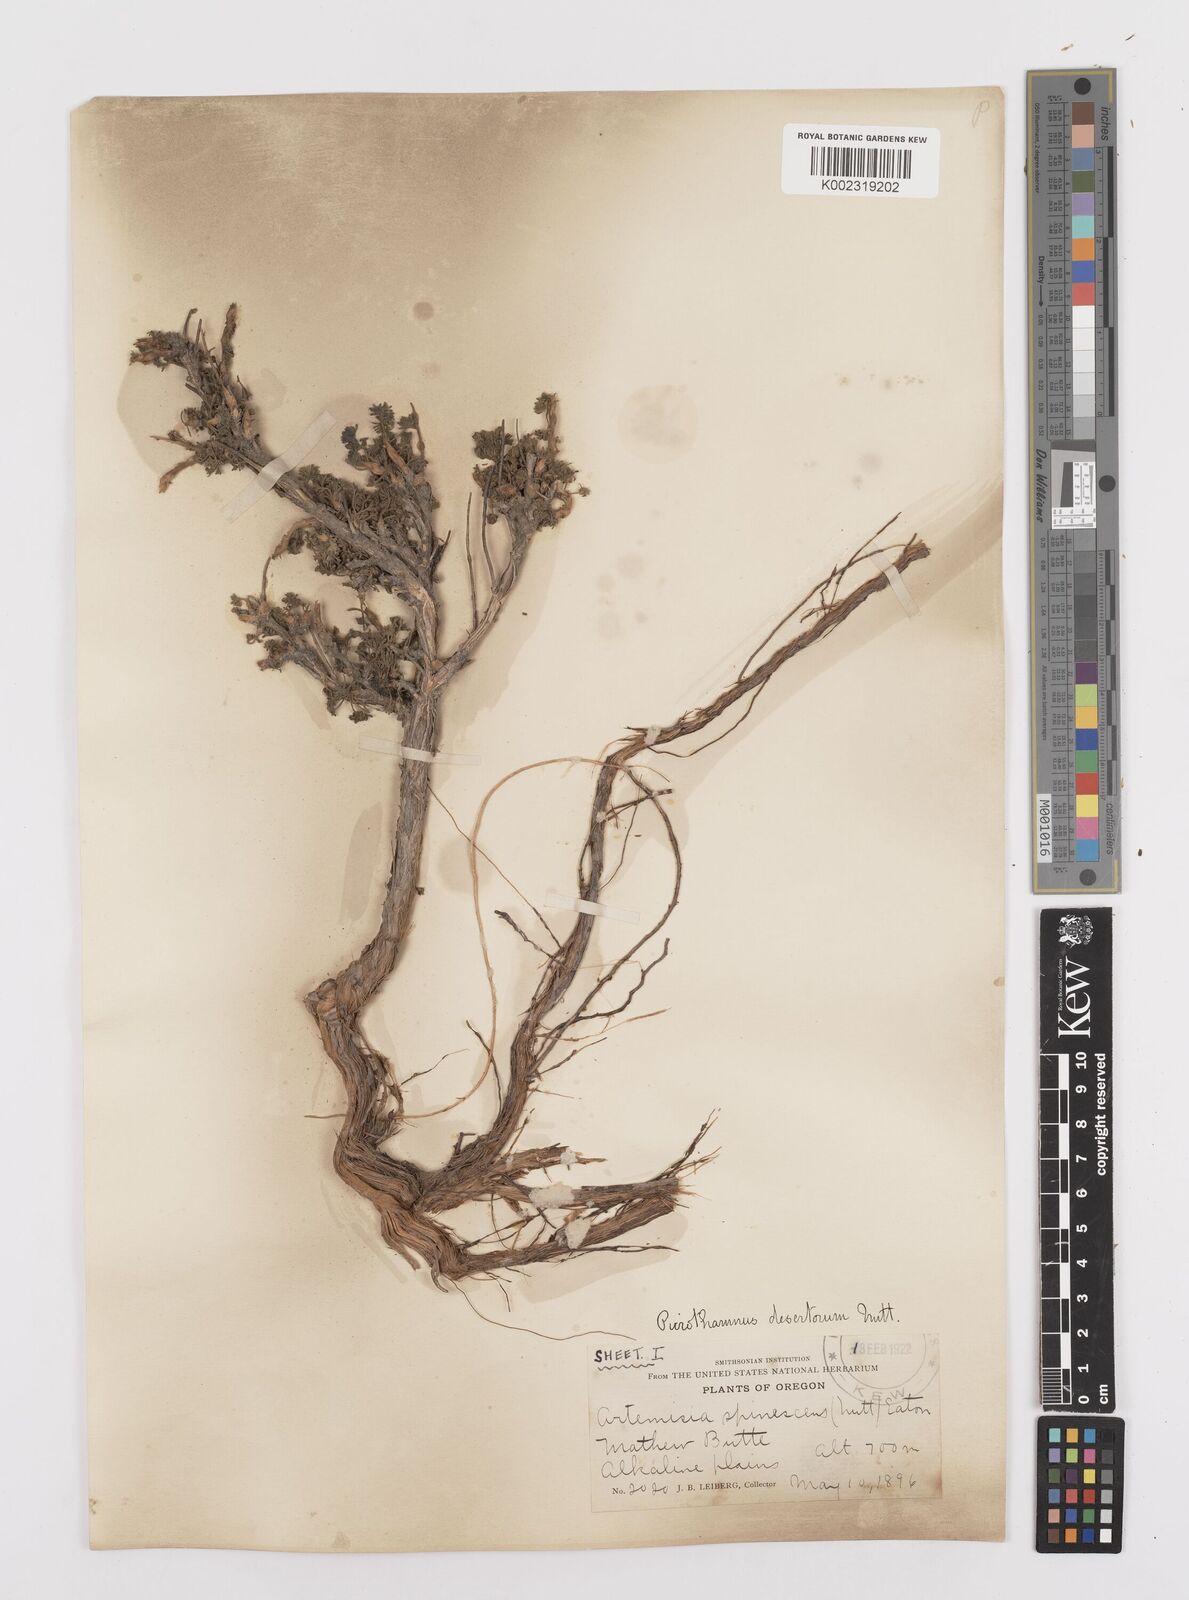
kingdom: Plantae
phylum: Tracheophyta
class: Magnoliopsida
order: Asterales
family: Asteraceae
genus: Artemisia
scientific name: Artemisia spinescens
